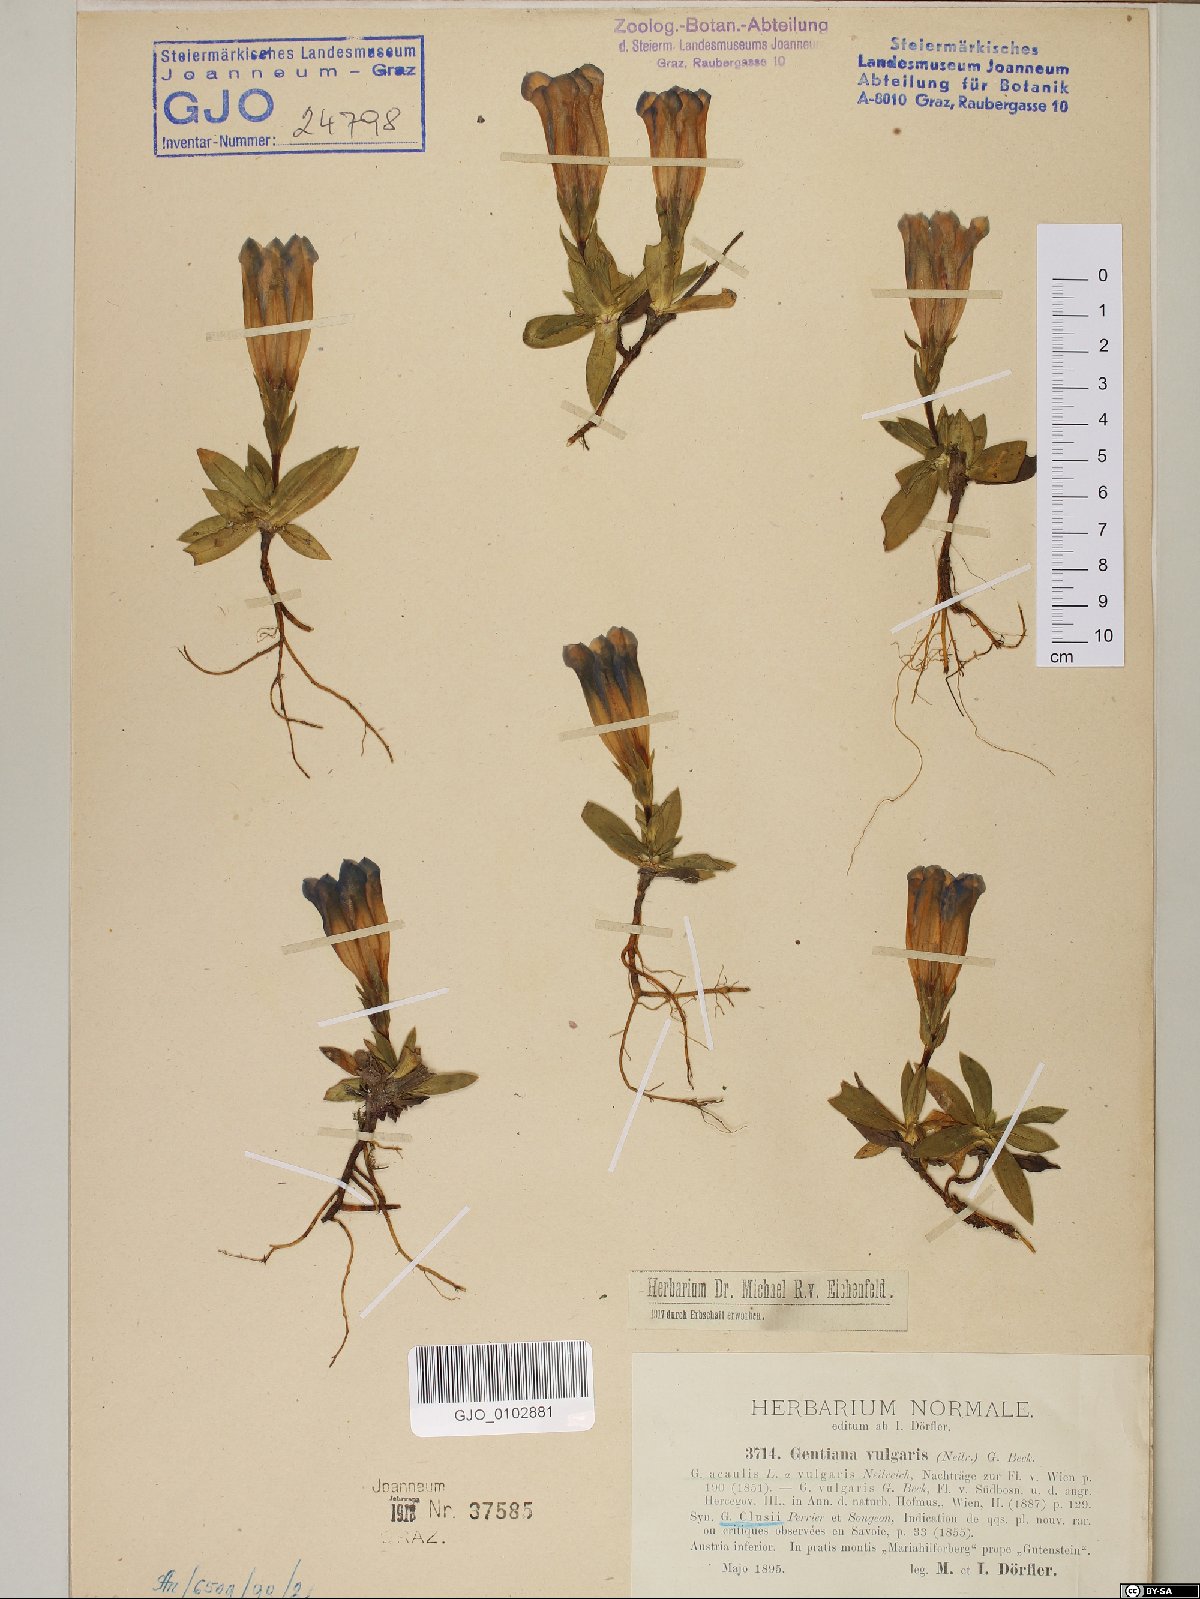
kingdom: Plantae
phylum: Tracheophyta
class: Magnoliopsida
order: Gentianales
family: Gentianaceae
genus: Gentiana
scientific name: Gentiana clusii
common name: Trumpet gentian
